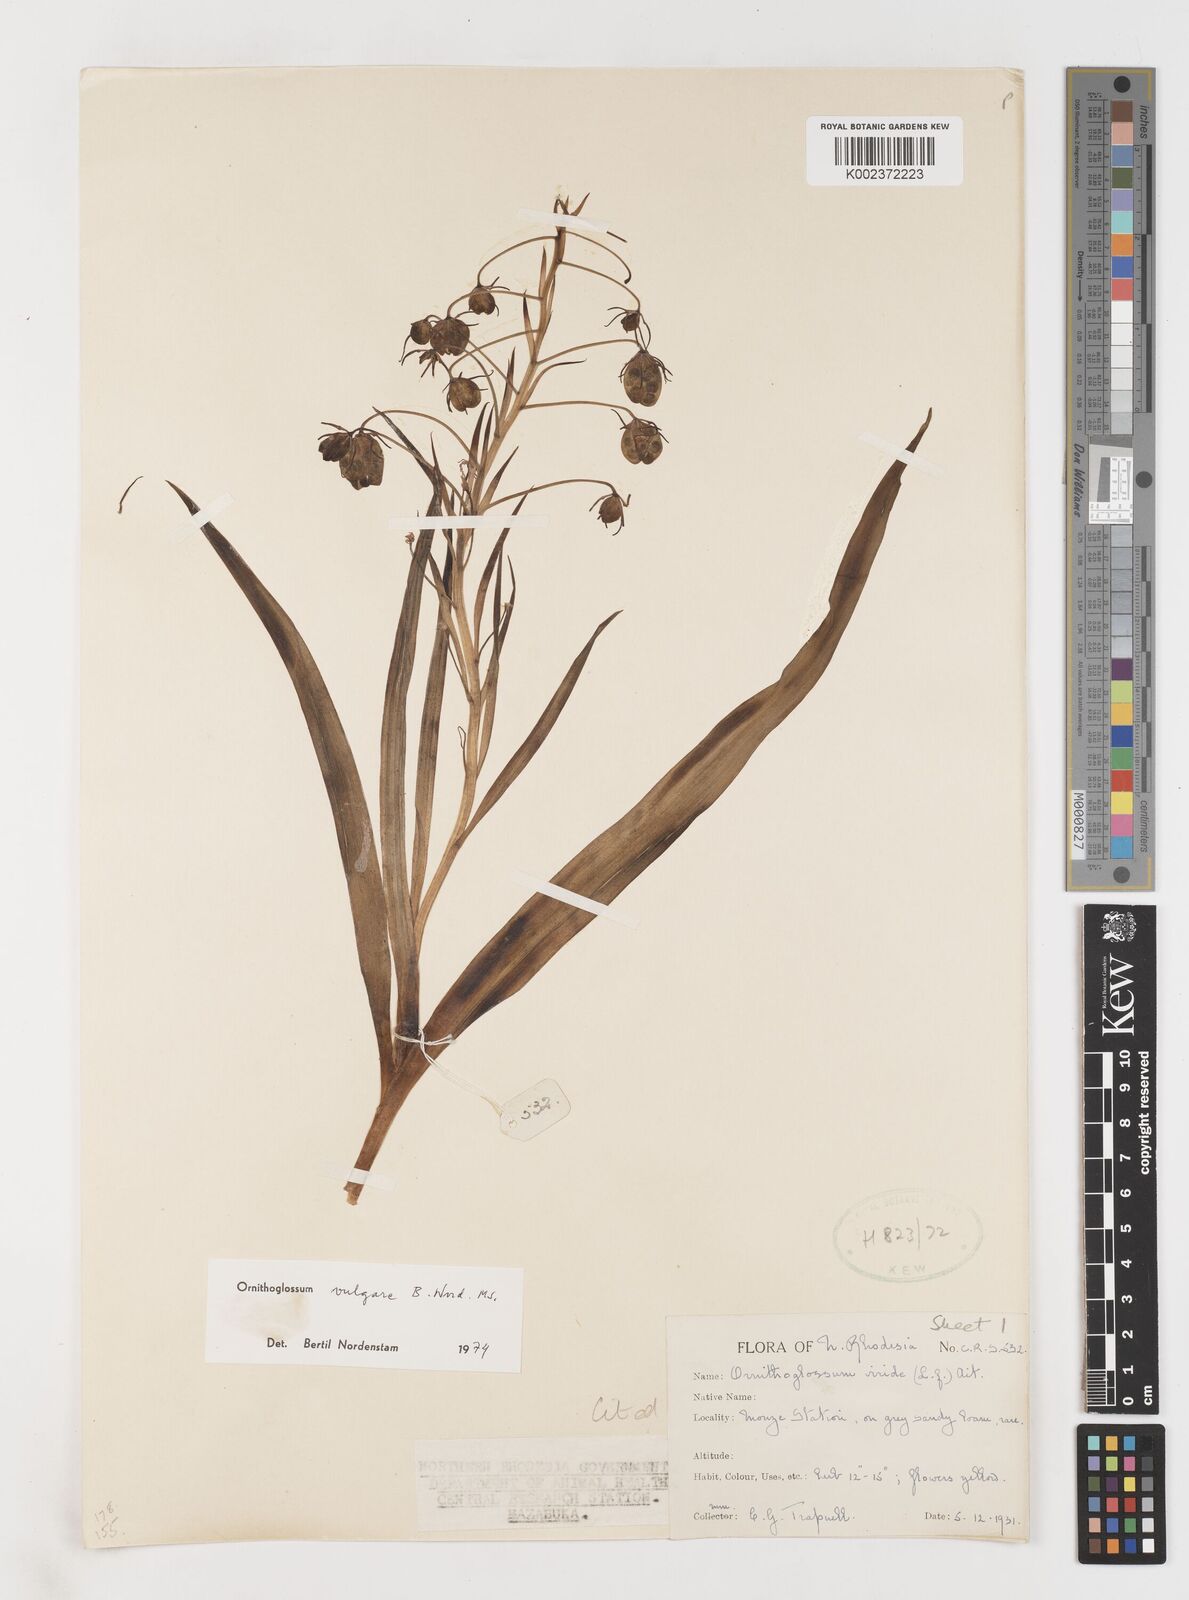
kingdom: Plantae
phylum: Tracheophyta
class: Liliopsida
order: Liliales
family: Colchicaceae
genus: Ornithoglossum
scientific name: Ornithoglossum vulgare
